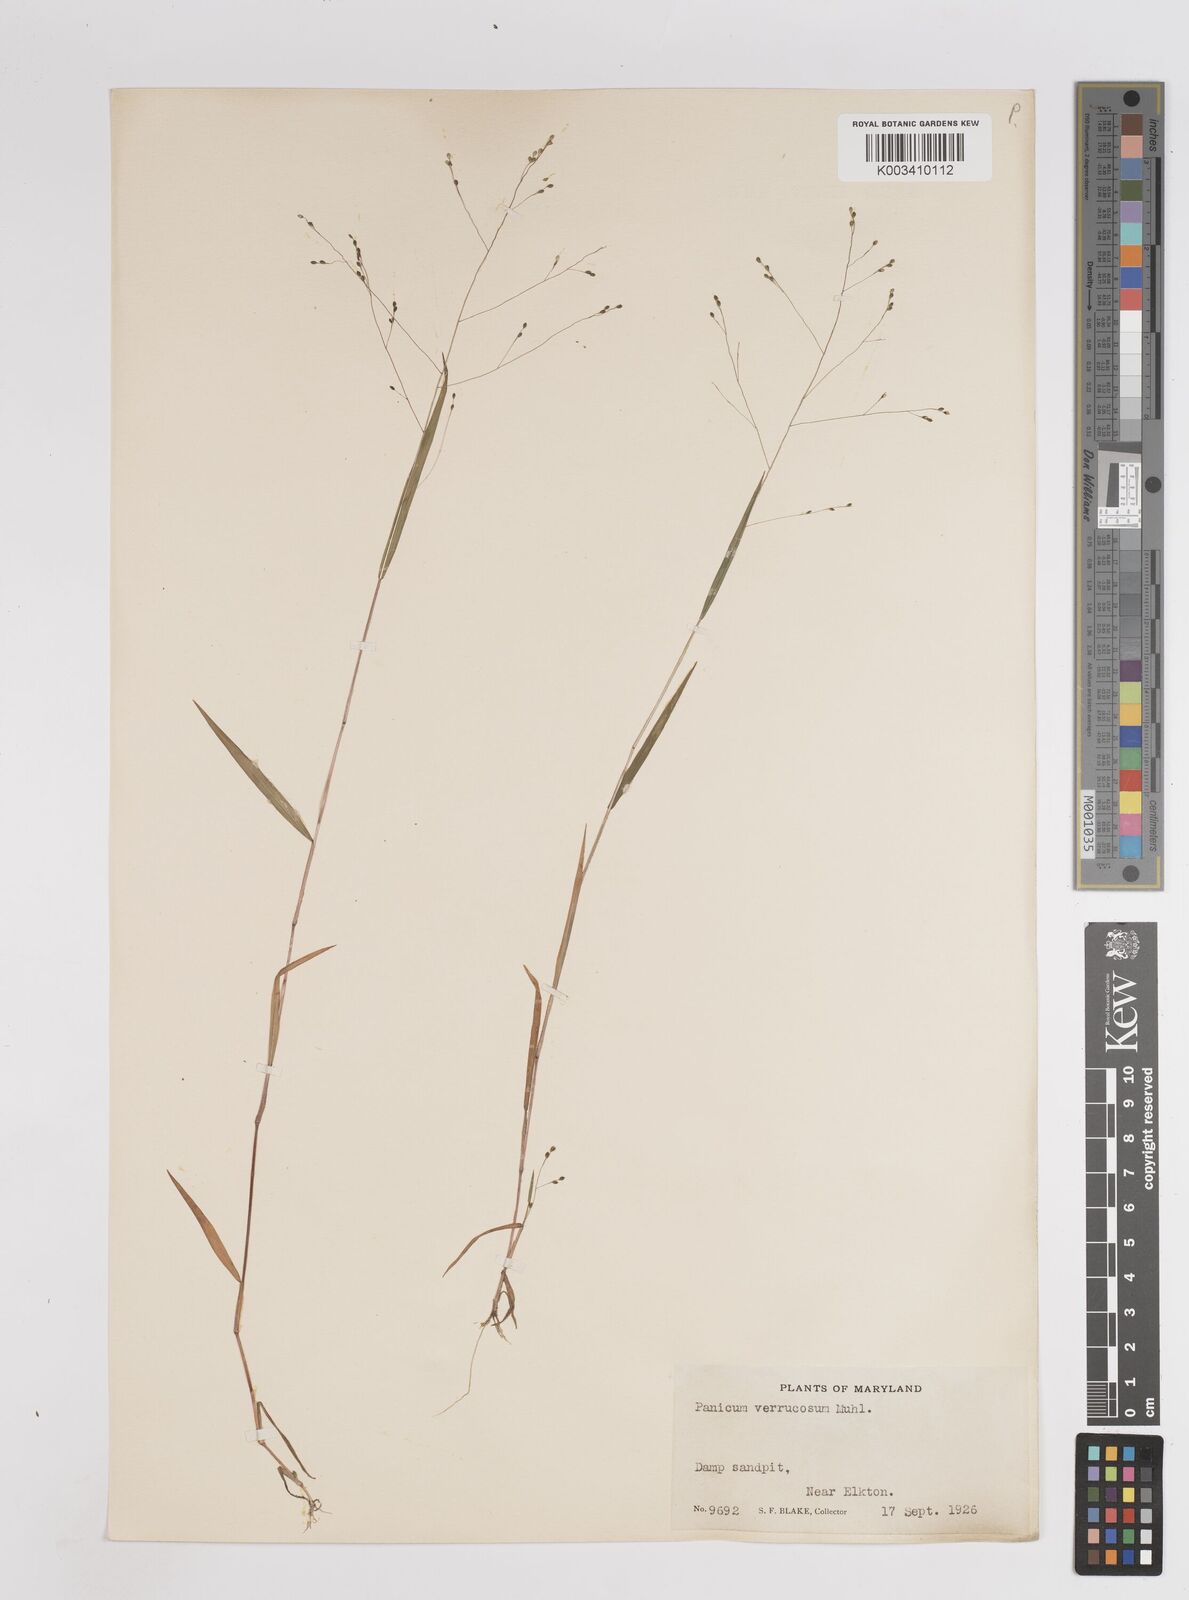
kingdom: Plantae
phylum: Tracheophyta
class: Liliopsida
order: Poales
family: Poaceae
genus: Kellochloa
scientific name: Kellochloa verrucosa
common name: Warty panic grass
